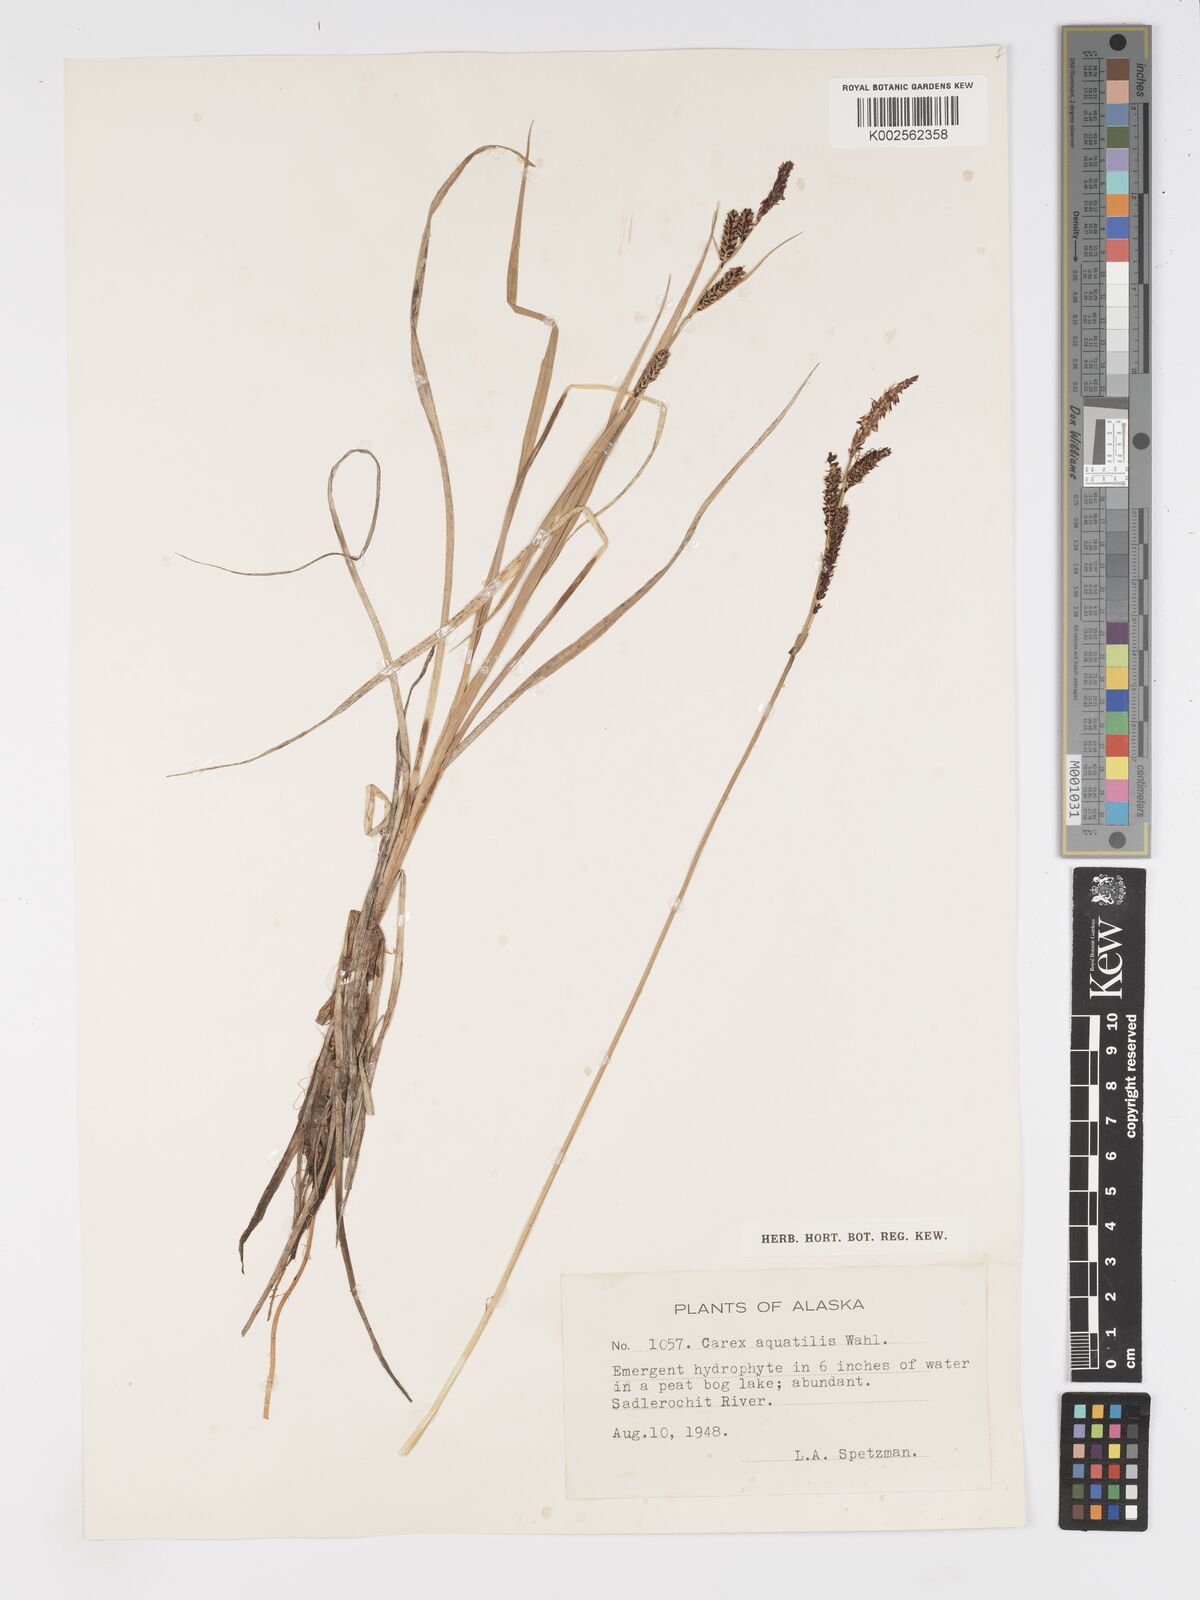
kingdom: Plantae
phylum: Tracheophyta
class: Liliopsida
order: Poales
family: Cyperaceae
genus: Carex
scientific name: Carex aquatilis
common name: Water sedge
